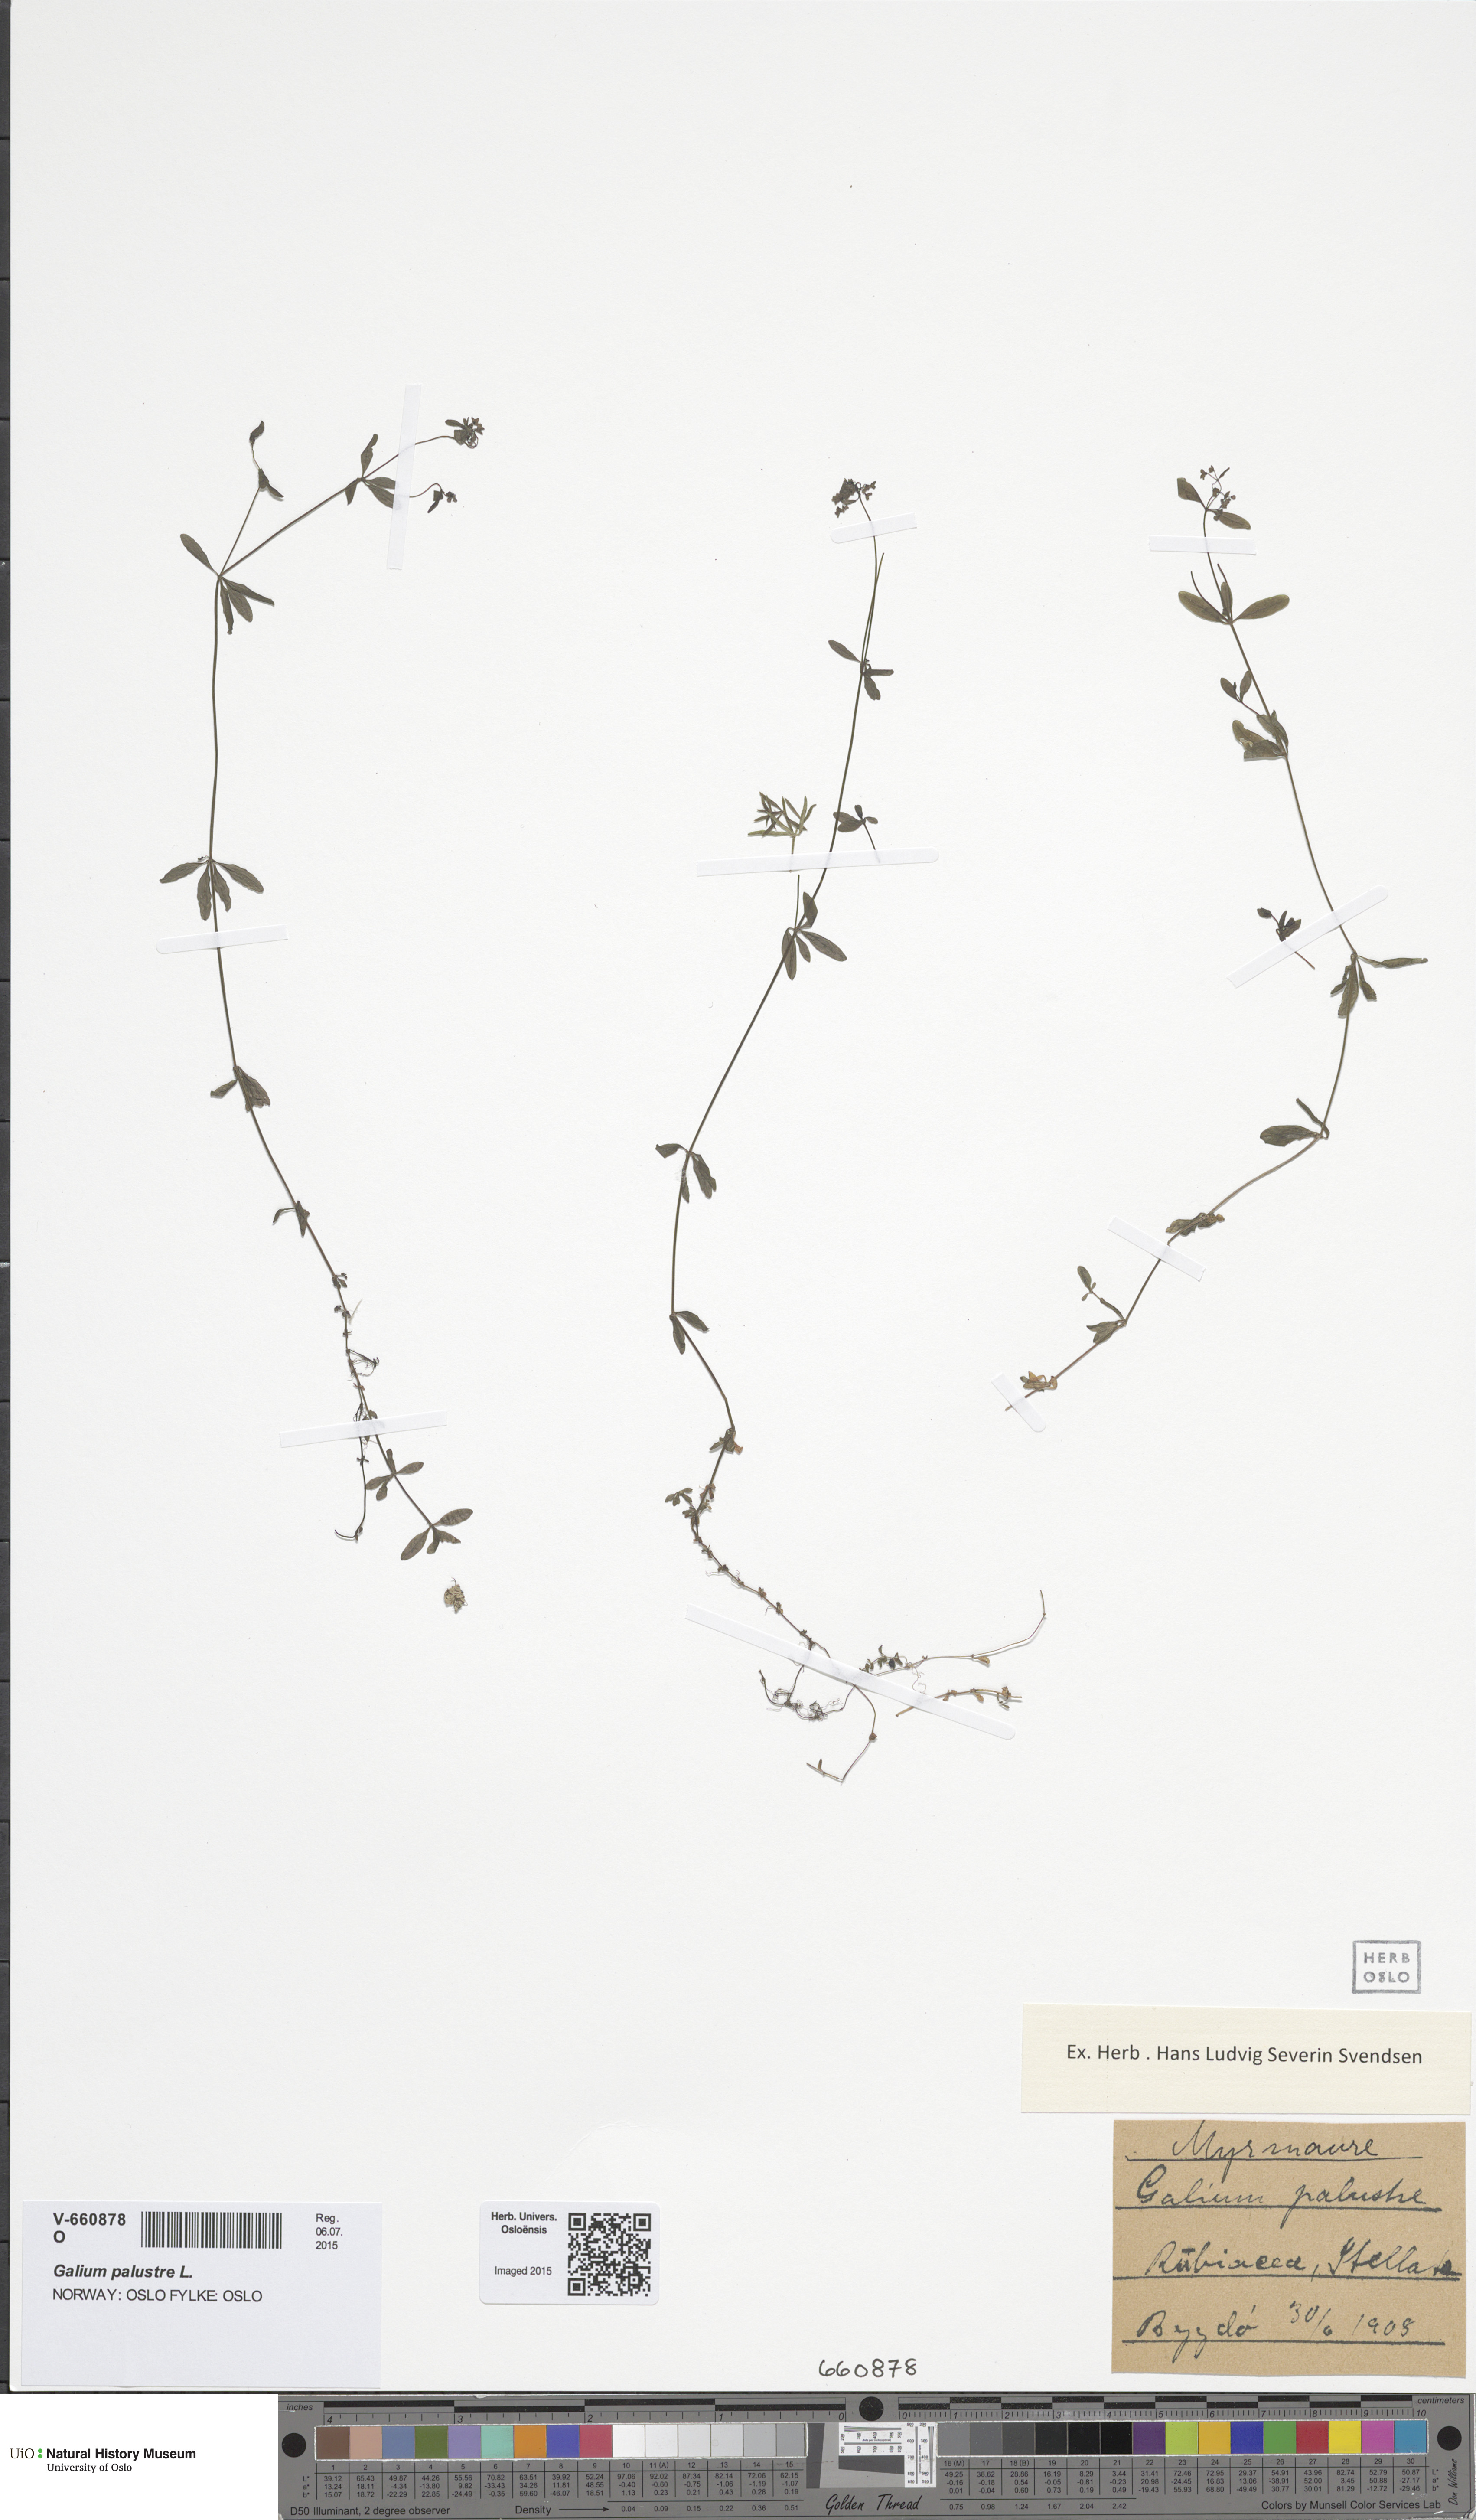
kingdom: Plantae
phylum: Tracheophyta
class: Magnoliopsida
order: Gentianales
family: Rubiaceae
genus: Galium
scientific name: Galium palustre
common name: Common marsh-bedstraw
